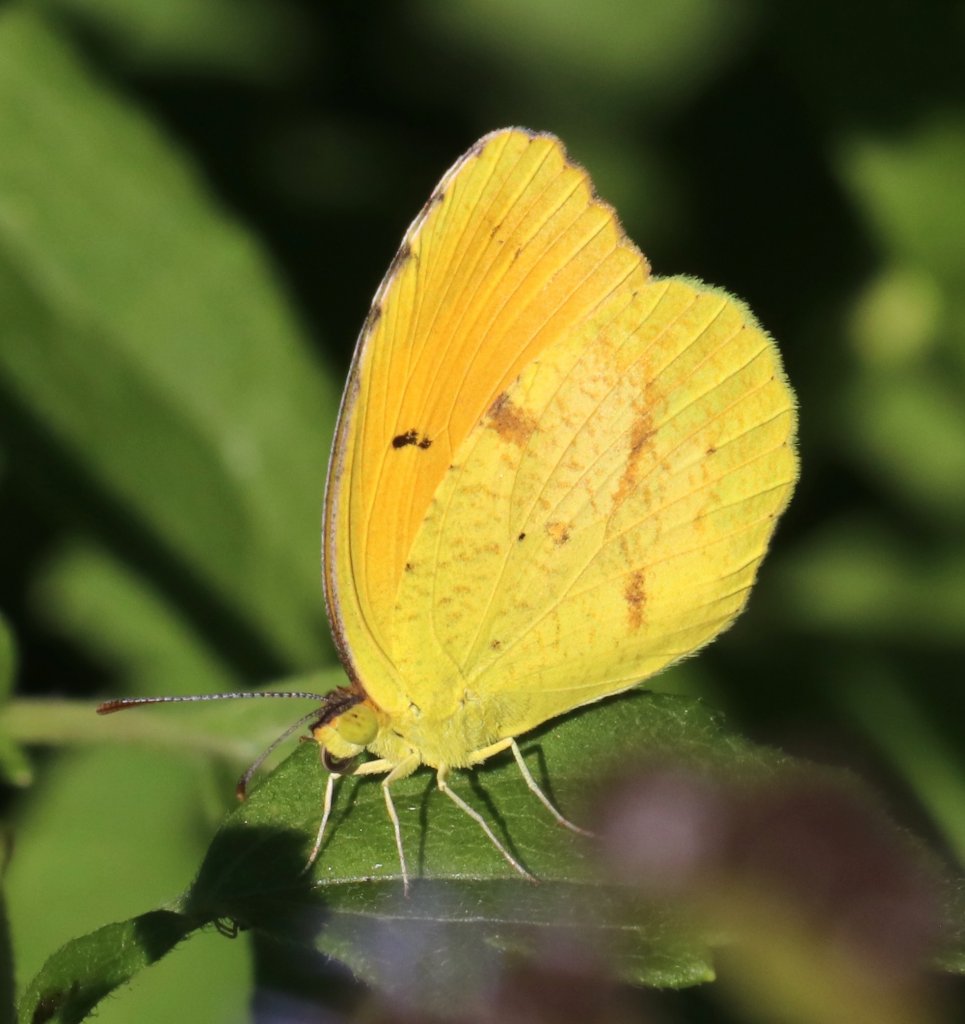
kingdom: Animalia
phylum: Arthropoda
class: Insecta
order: Lepidoptera
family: Pieridae
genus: Abaeis
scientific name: Abaeis nicippe
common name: Sleepy Orange
